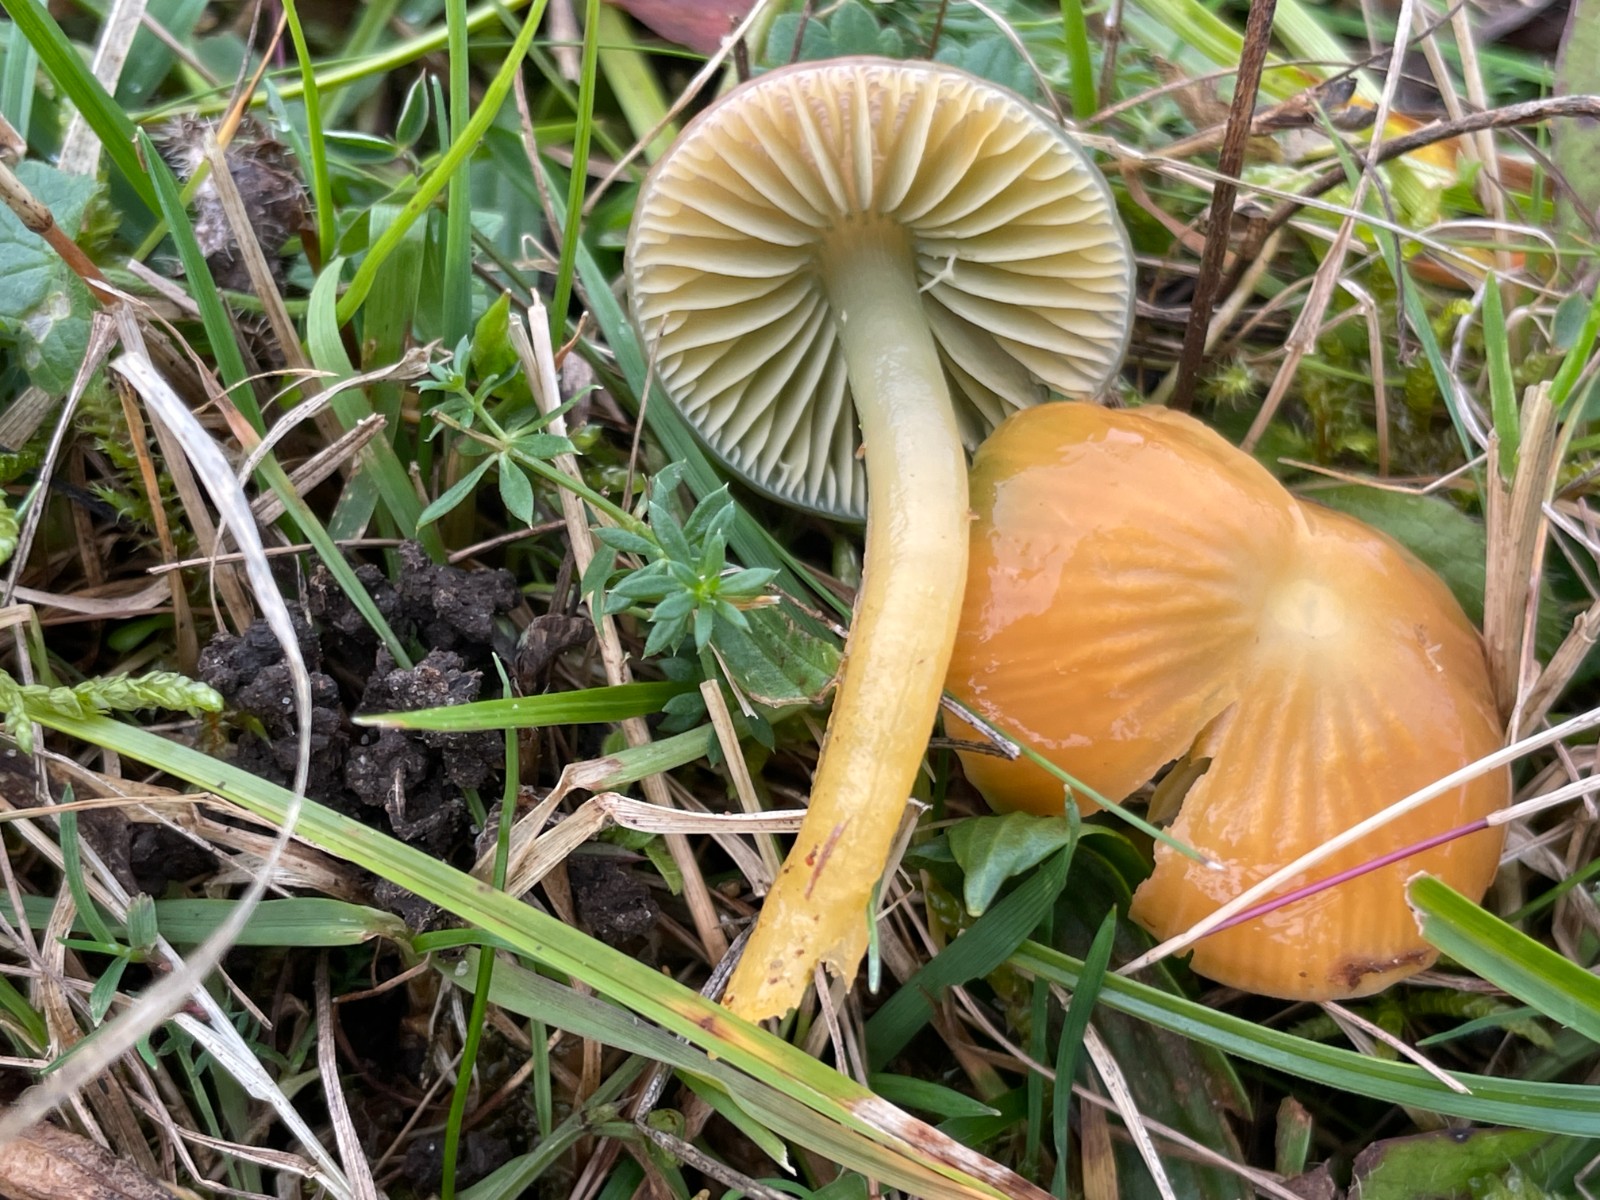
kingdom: Fungi
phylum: Basidiomycota
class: Agaricomycetes
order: Agaricales
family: Hygrophoraceae
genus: Gliophorus
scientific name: Gliophorus psittacinus
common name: papegøje-vokshat
